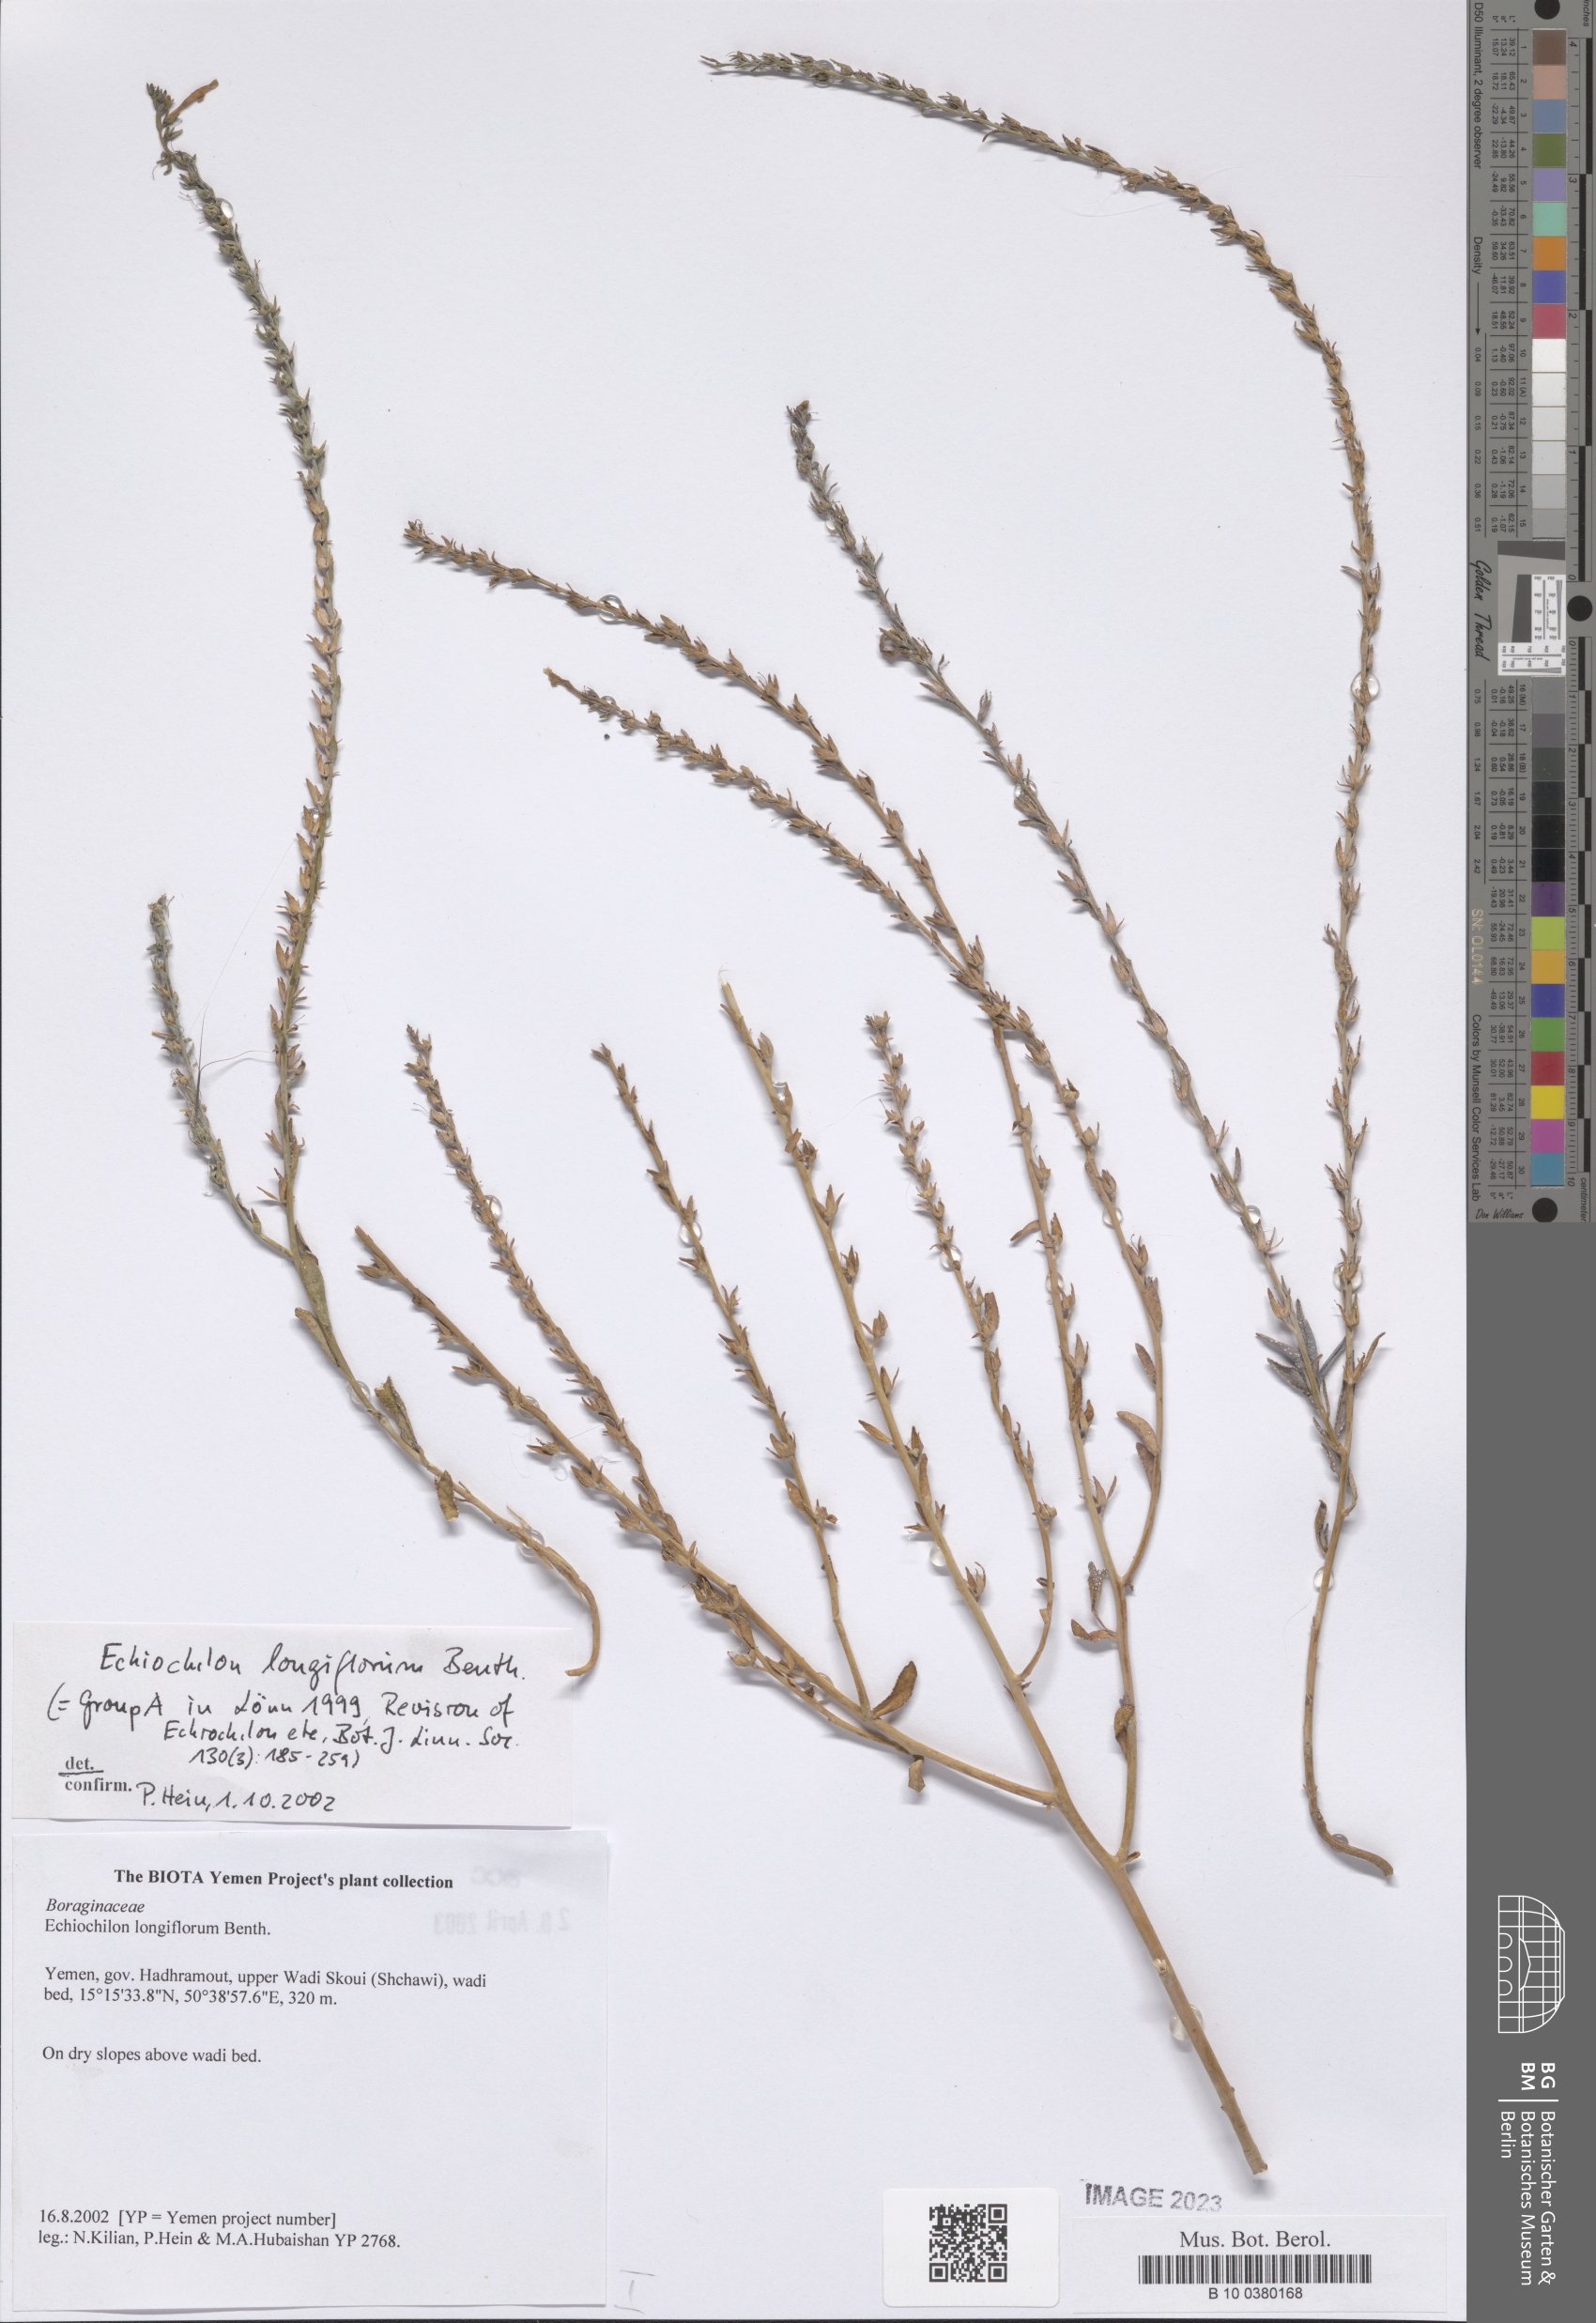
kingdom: Plantae
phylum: Tracheophyta
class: Magnoliopsida
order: Boraginales
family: Boraginaceae
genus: Echiochilon
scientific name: Echiochilon longiflorum
